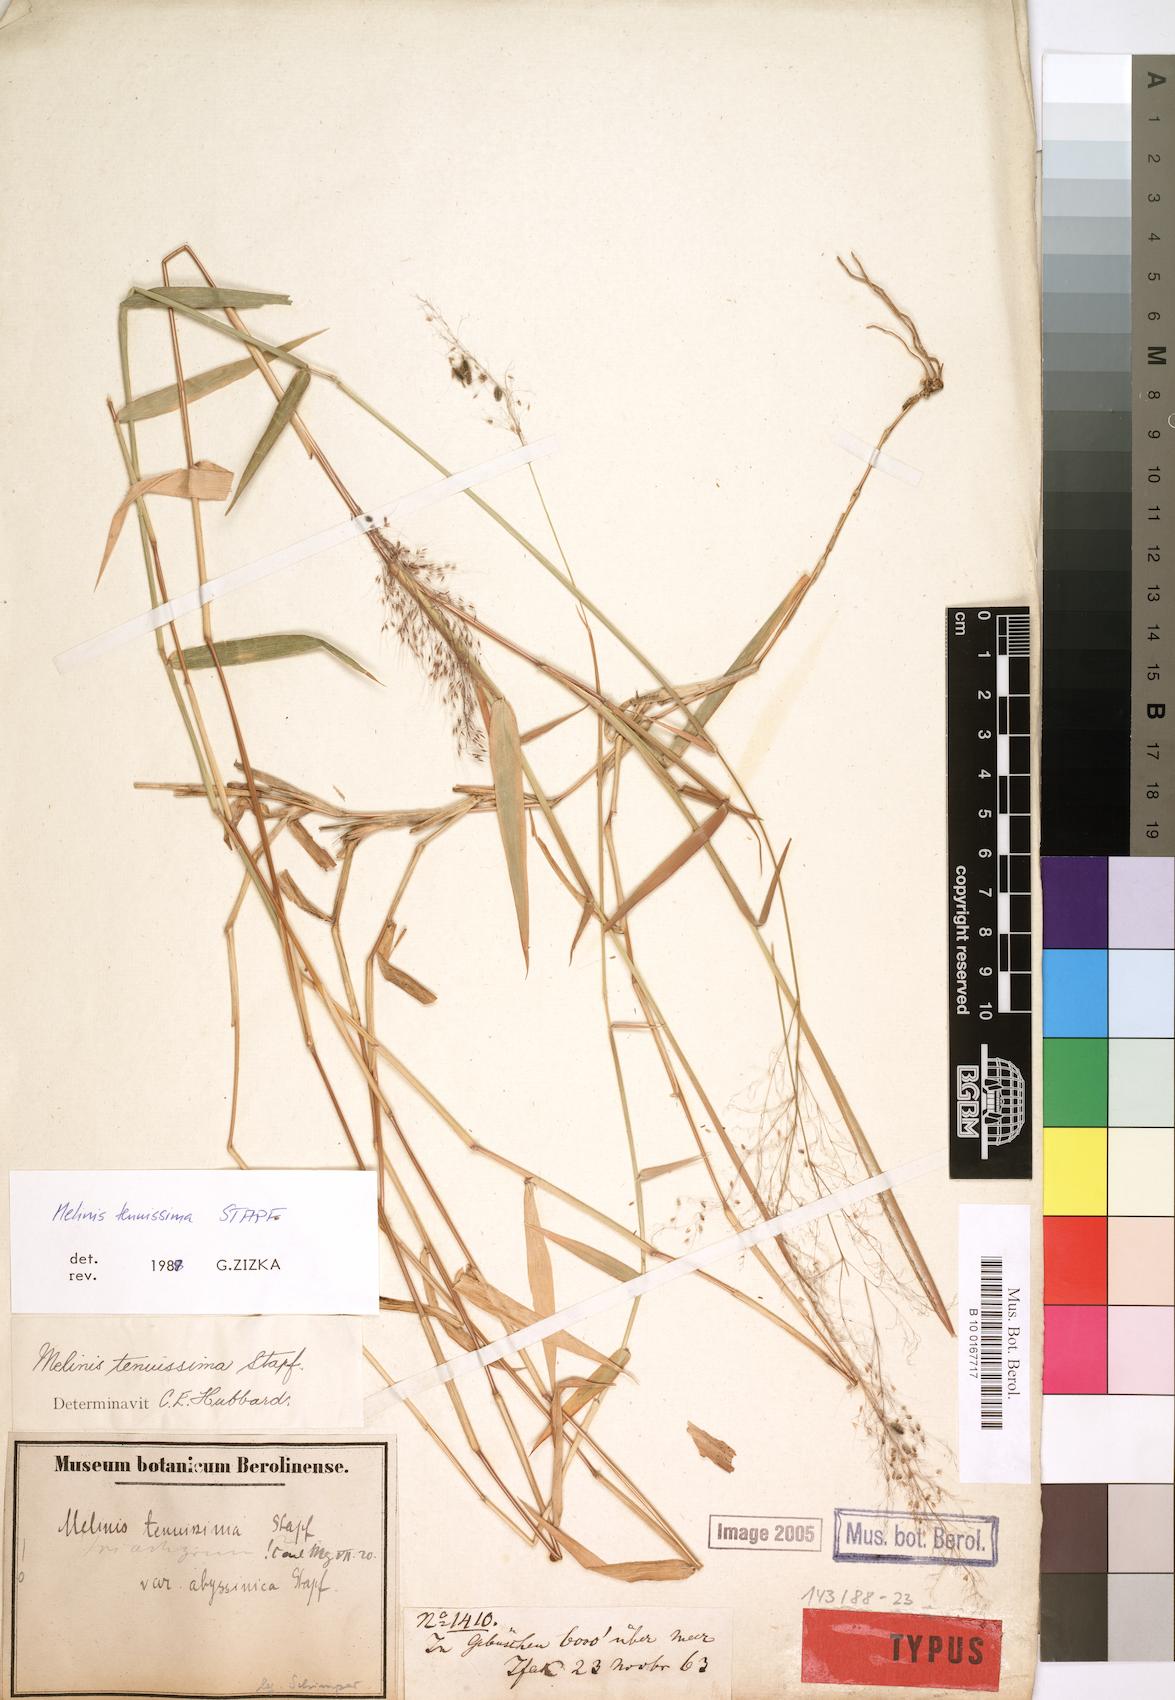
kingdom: Plantae
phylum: Tracheophyta
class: Liliopsida
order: Poales
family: Poaceae
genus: Melinis
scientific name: Melinis tenuissima
